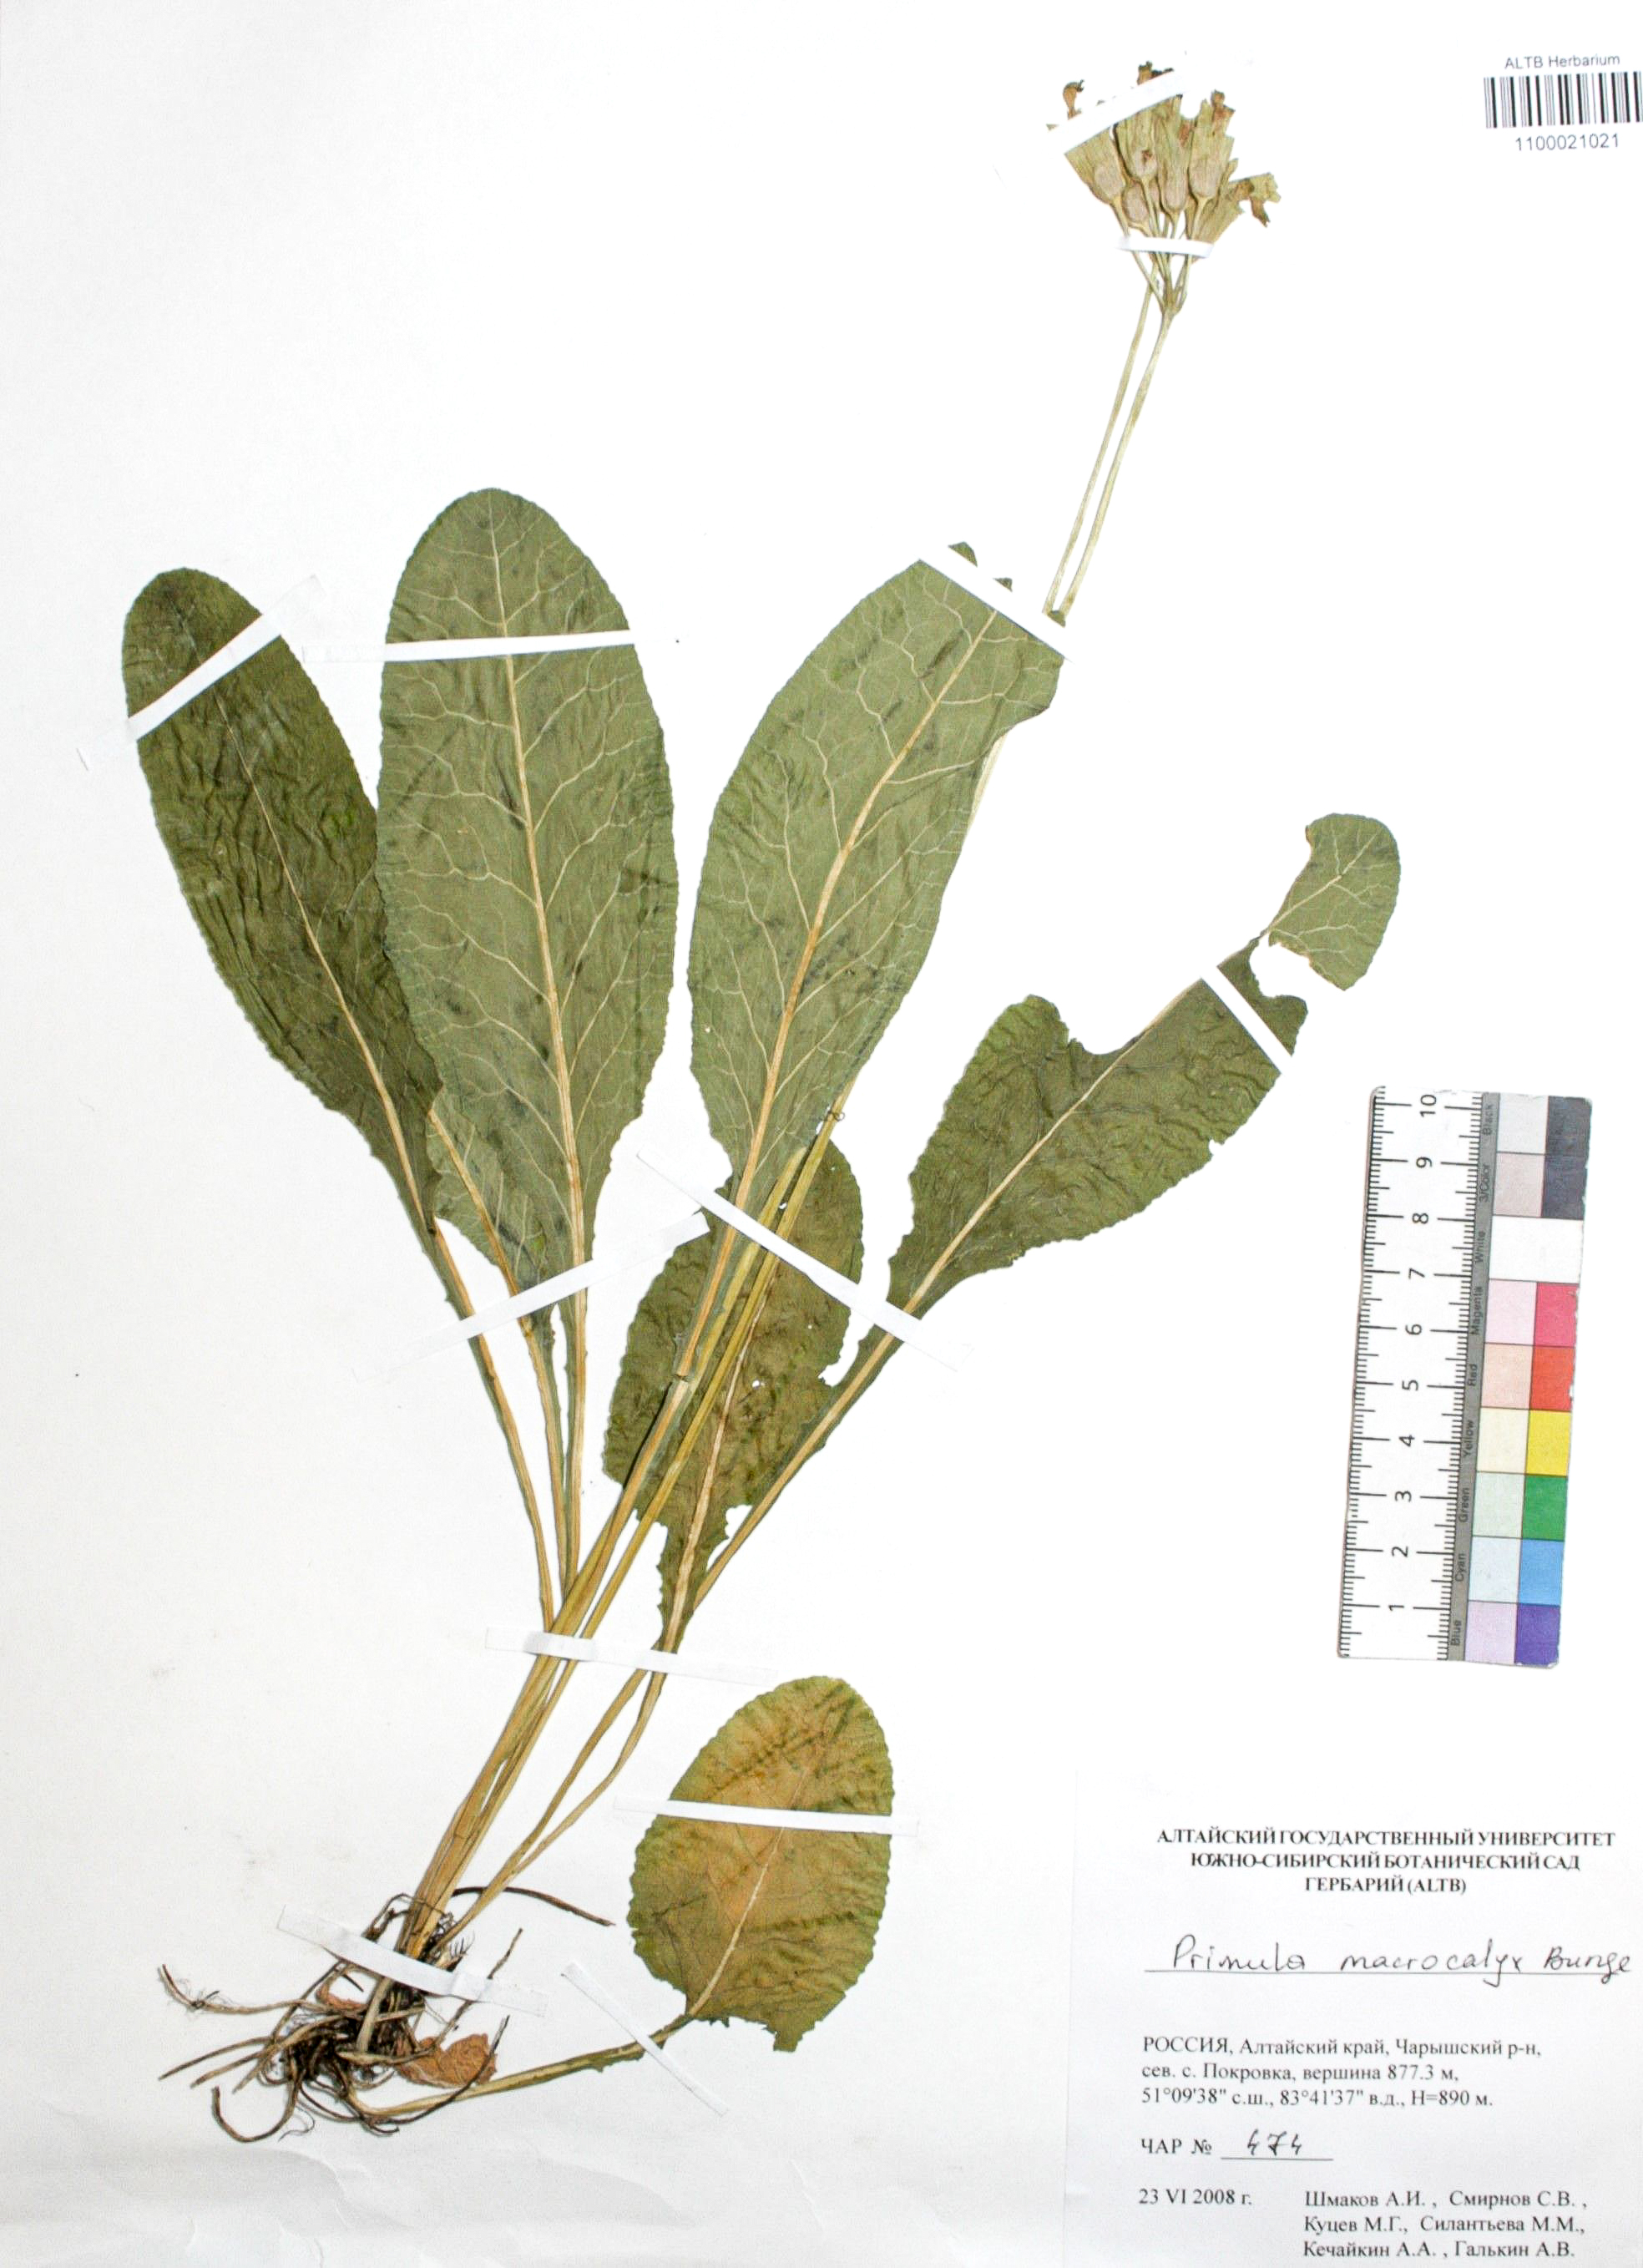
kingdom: Plantae
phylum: Tracheophyta
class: Magnoliopsida
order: Ericales
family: Primulaceae
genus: Primula
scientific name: Primula veris
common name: Cowslip
